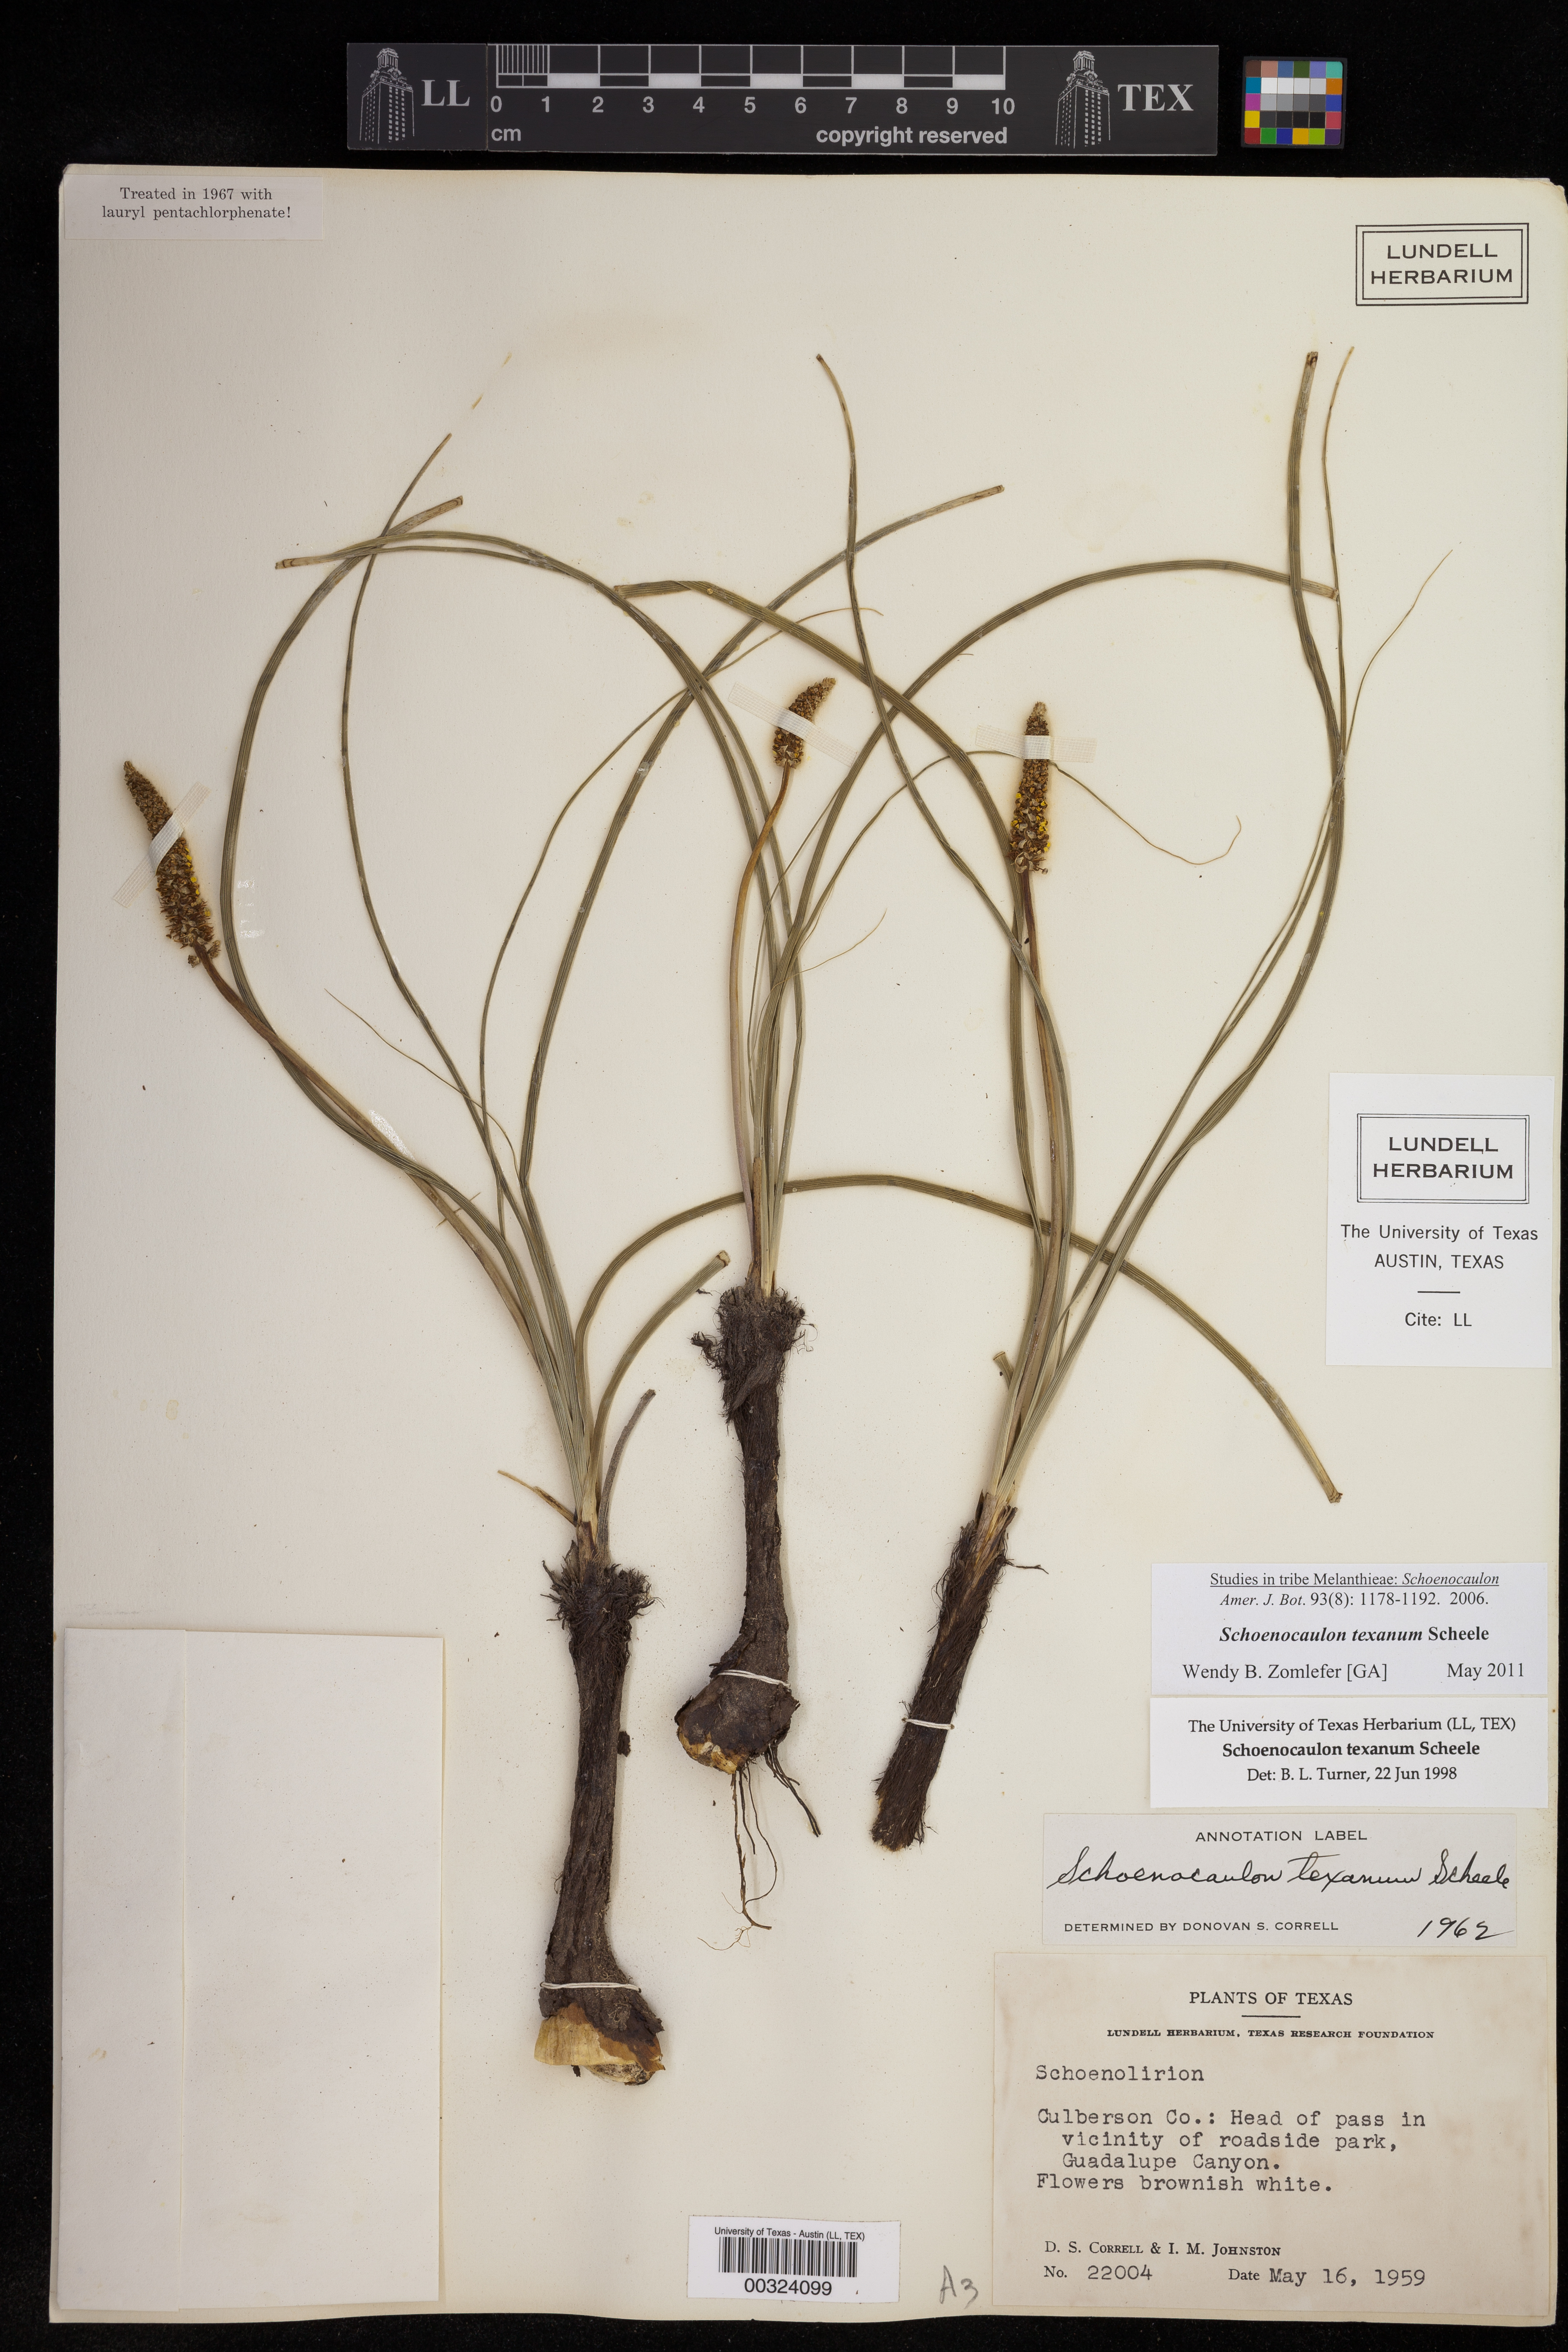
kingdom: Plantae
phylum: Tracheophyta
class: Liliopsida
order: Liliales
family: Melanthiaceae
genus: Schoenocaulon
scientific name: Schoenocaulon texanum
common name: Texas feather-shank
